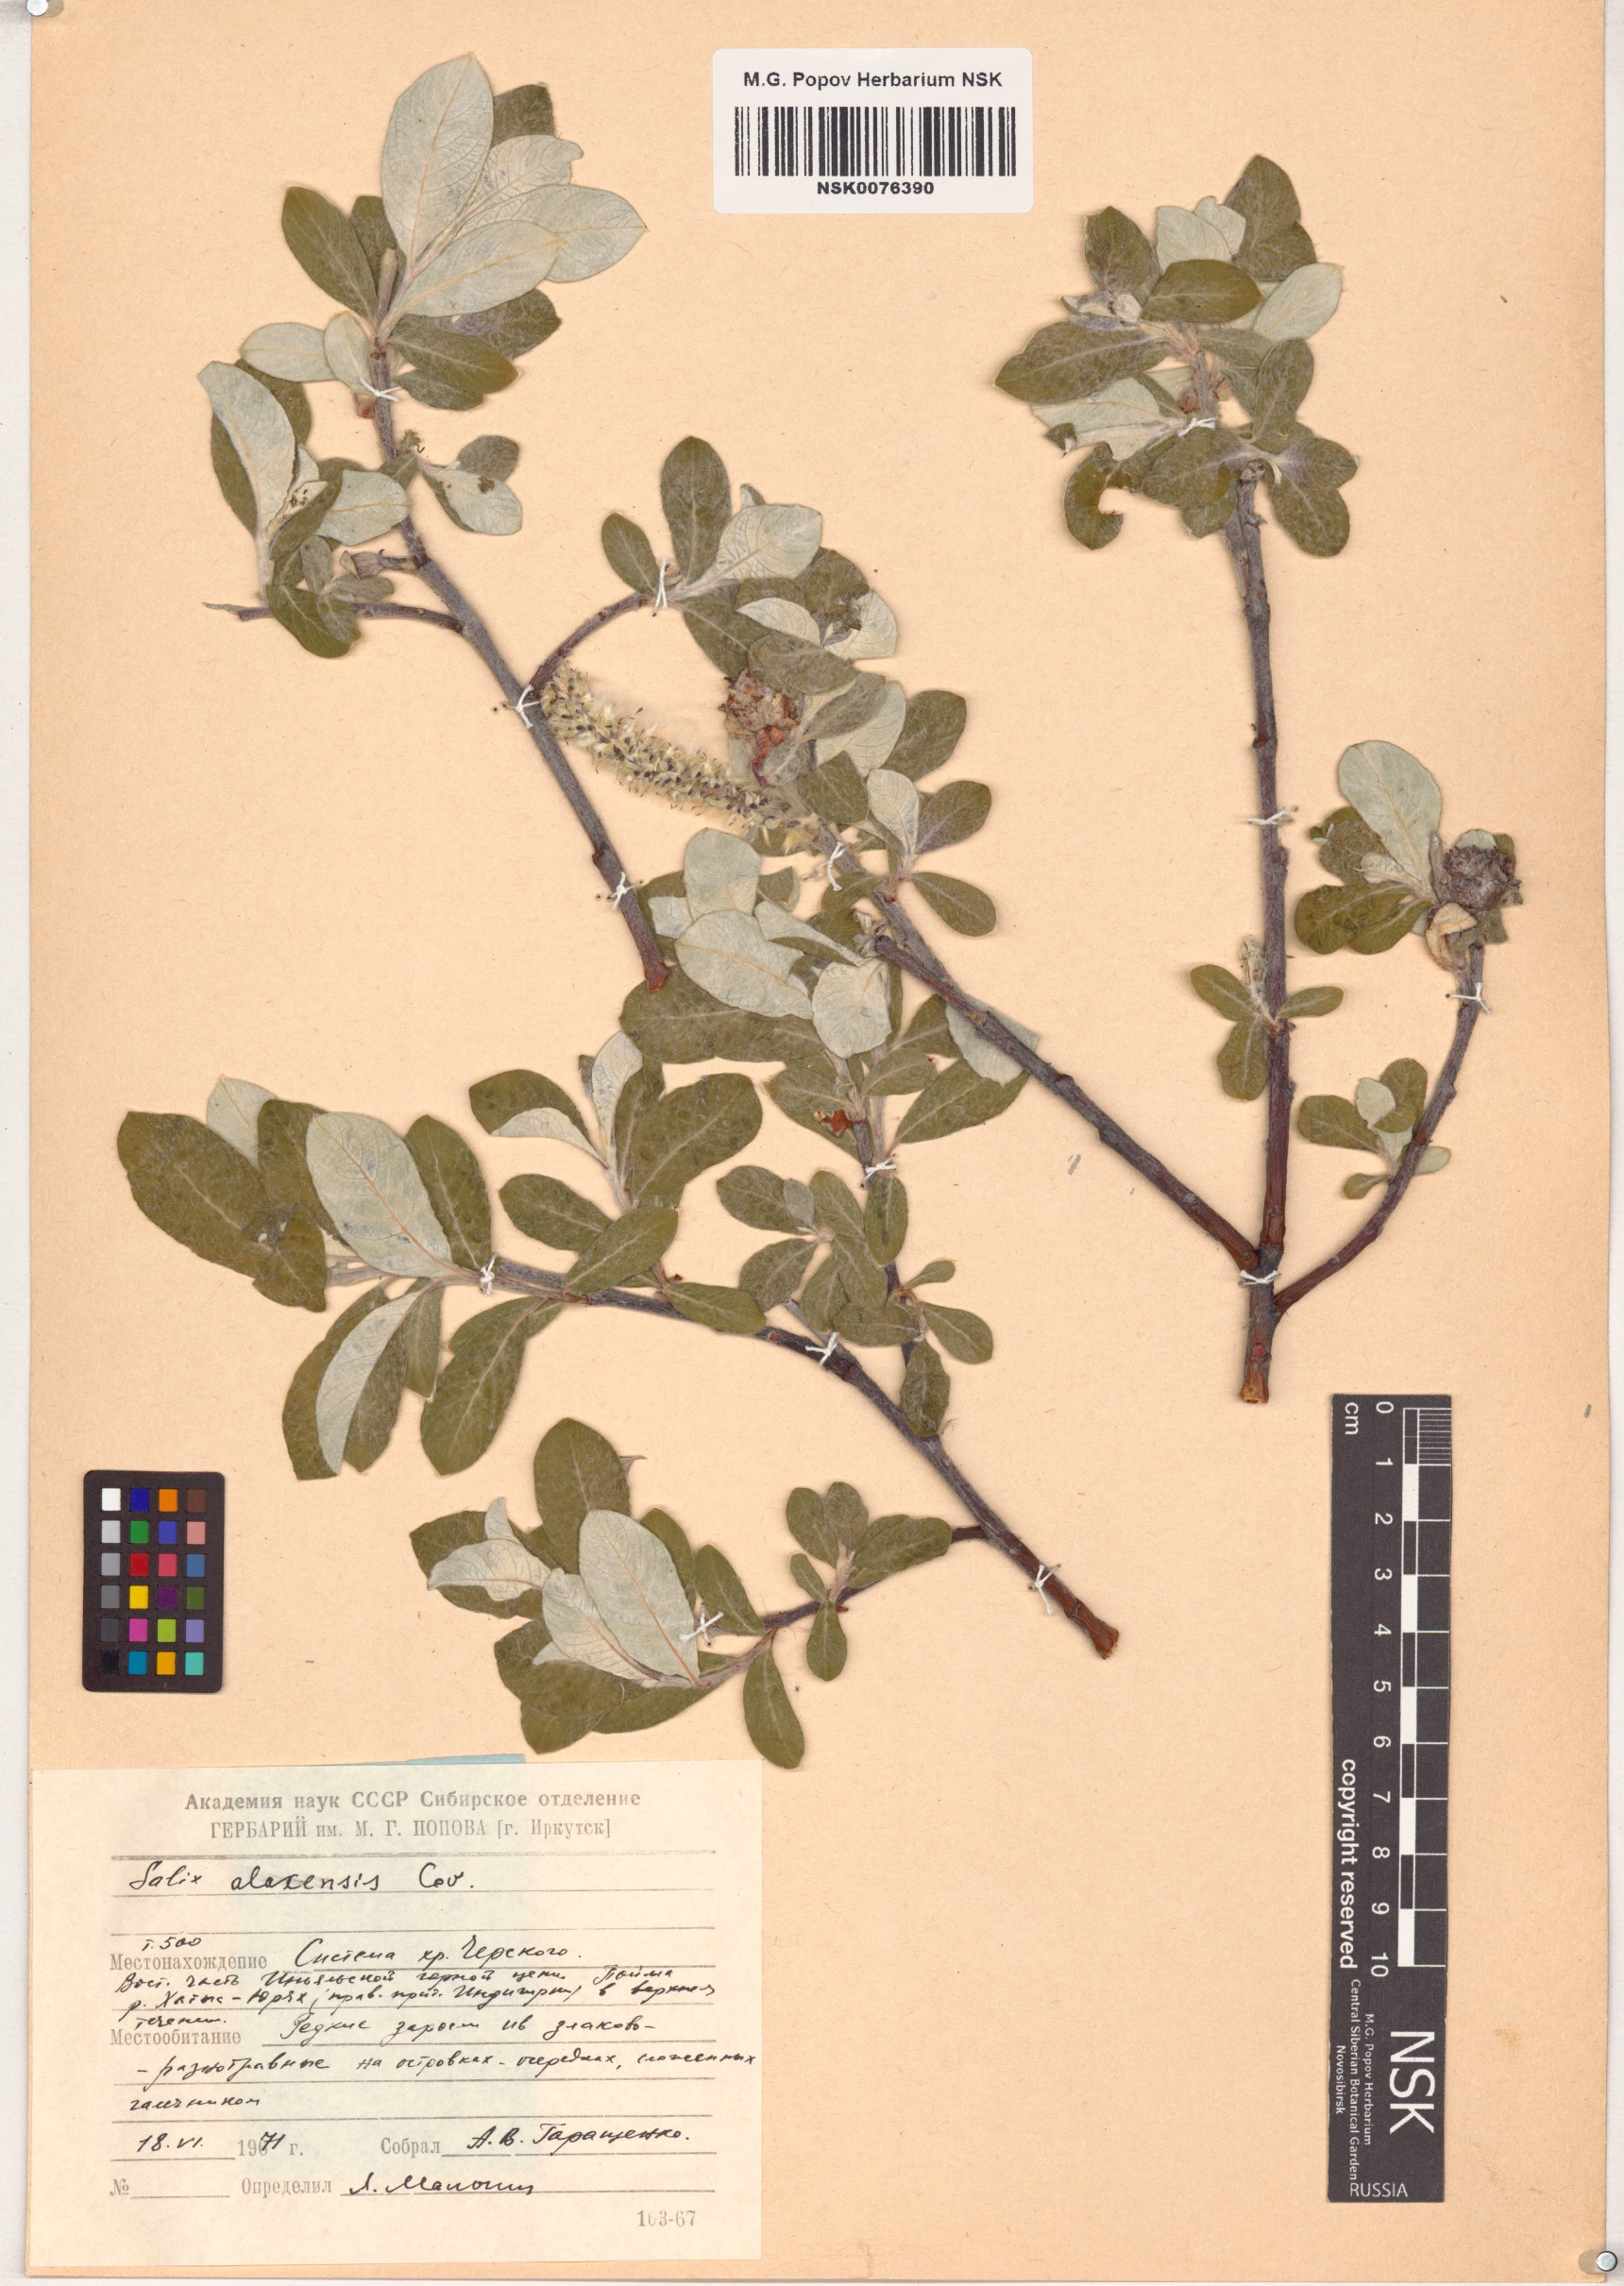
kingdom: Plantae
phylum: Tracheophyta
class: Magnoliopsida
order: Malpighiales
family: Salicaceae
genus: Salix
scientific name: Salix alaxensis
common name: Feltleaf willow
